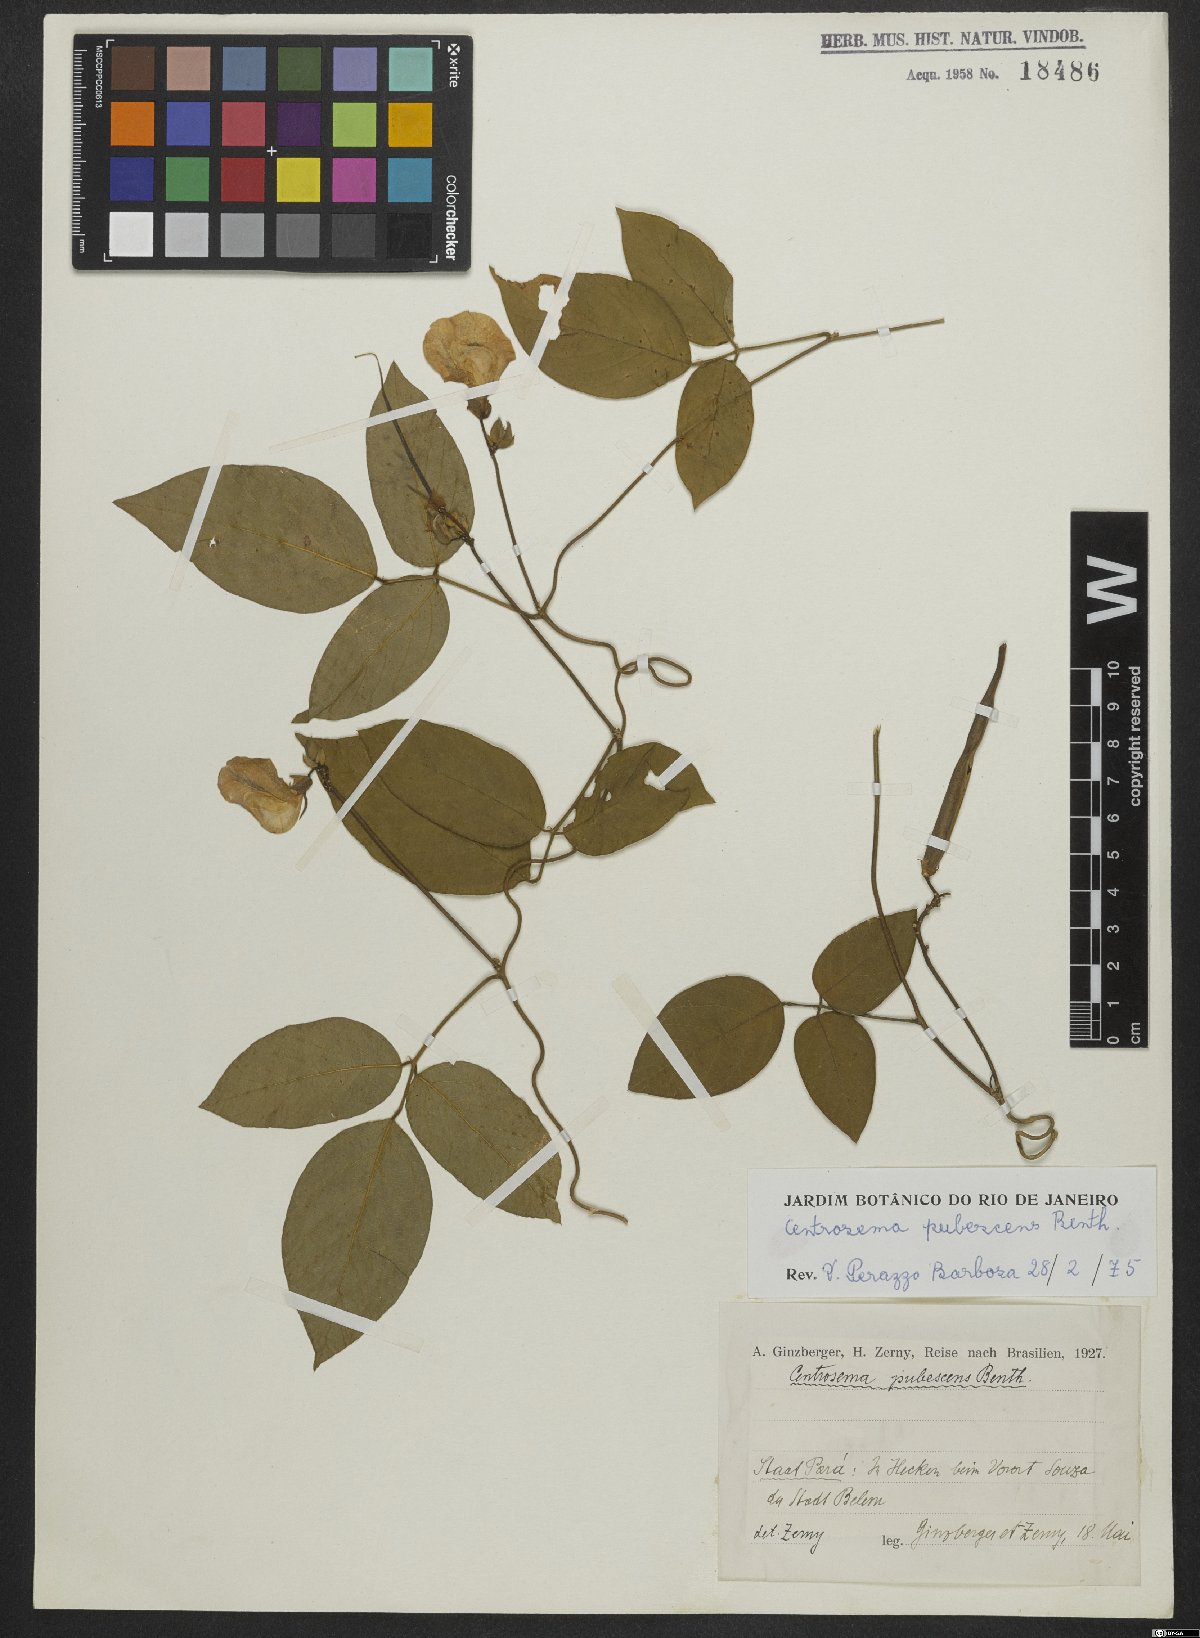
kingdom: Plantae
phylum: Tracheophyta
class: Magnoliopsida
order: Fabales
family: Fabaceae
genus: Centrosema
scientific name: Centrosema pubescens
